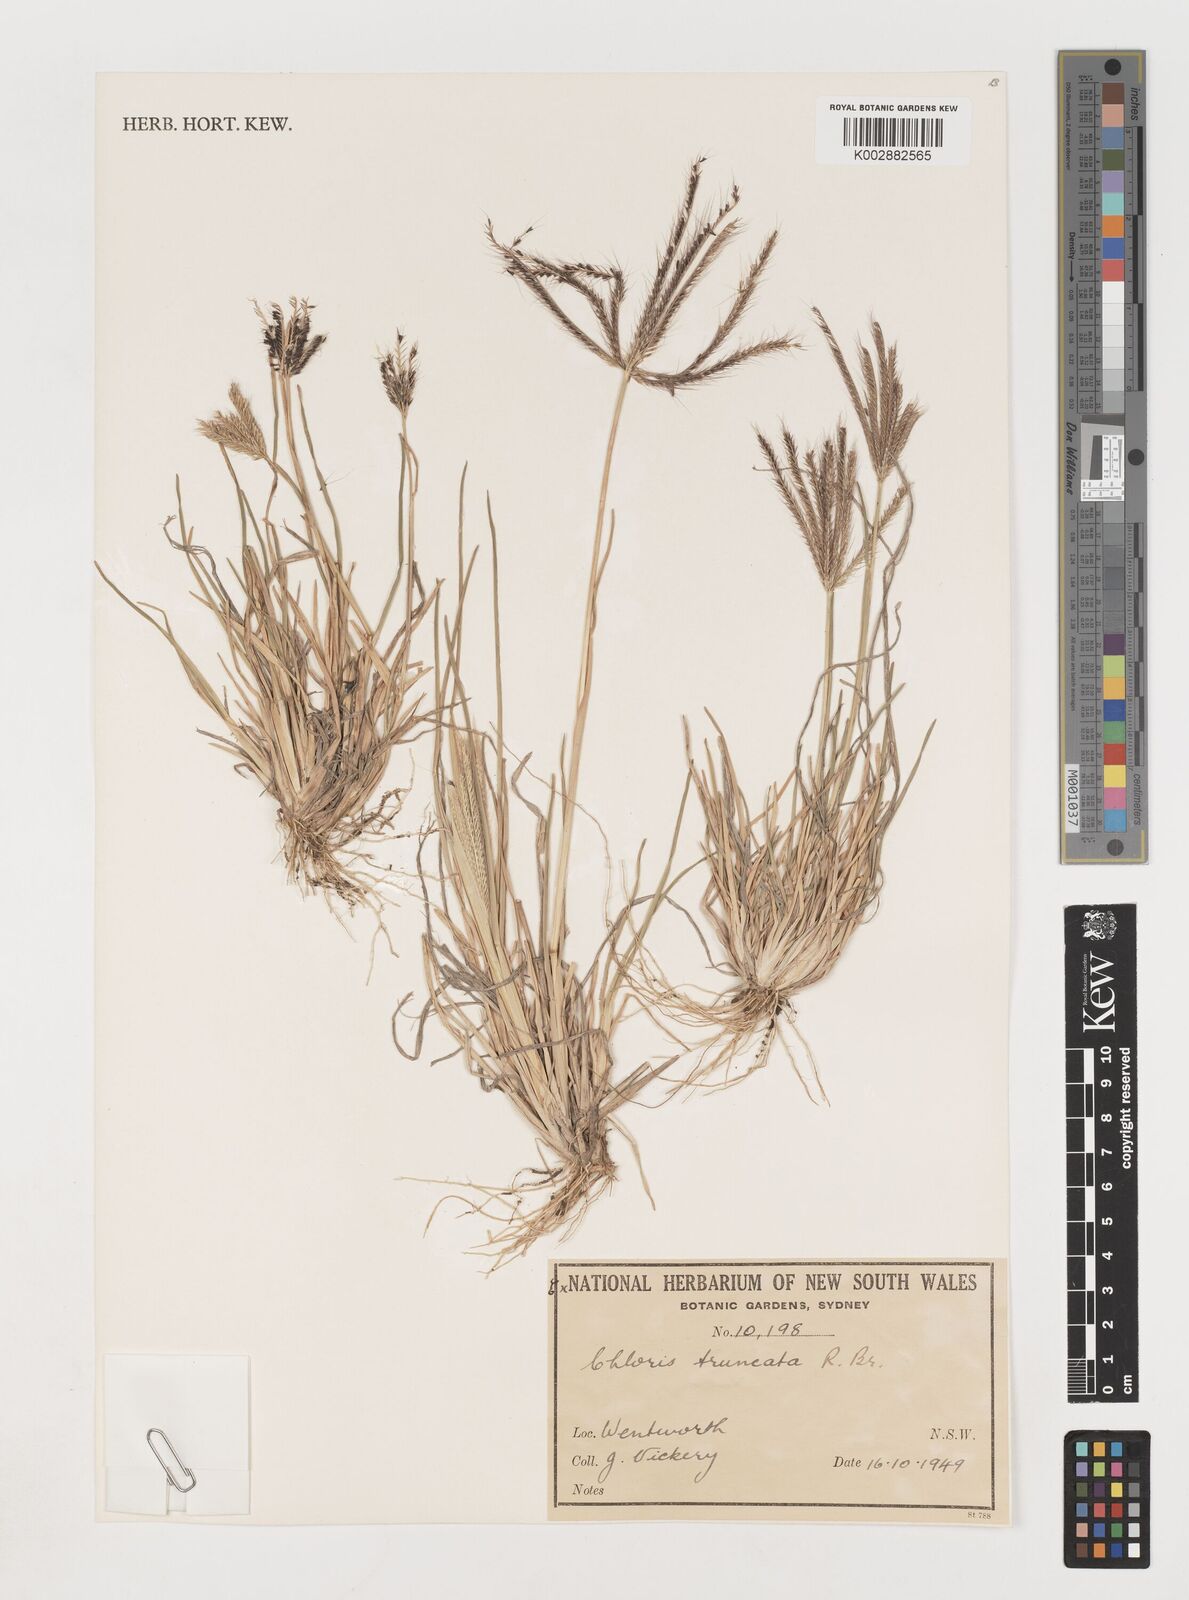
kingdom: Plantae
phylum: Tracheophyta
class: Liliopsida
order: Poales
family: Poaceae
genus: Chloris
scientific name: Chloris truncata
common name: Windmill-grass
